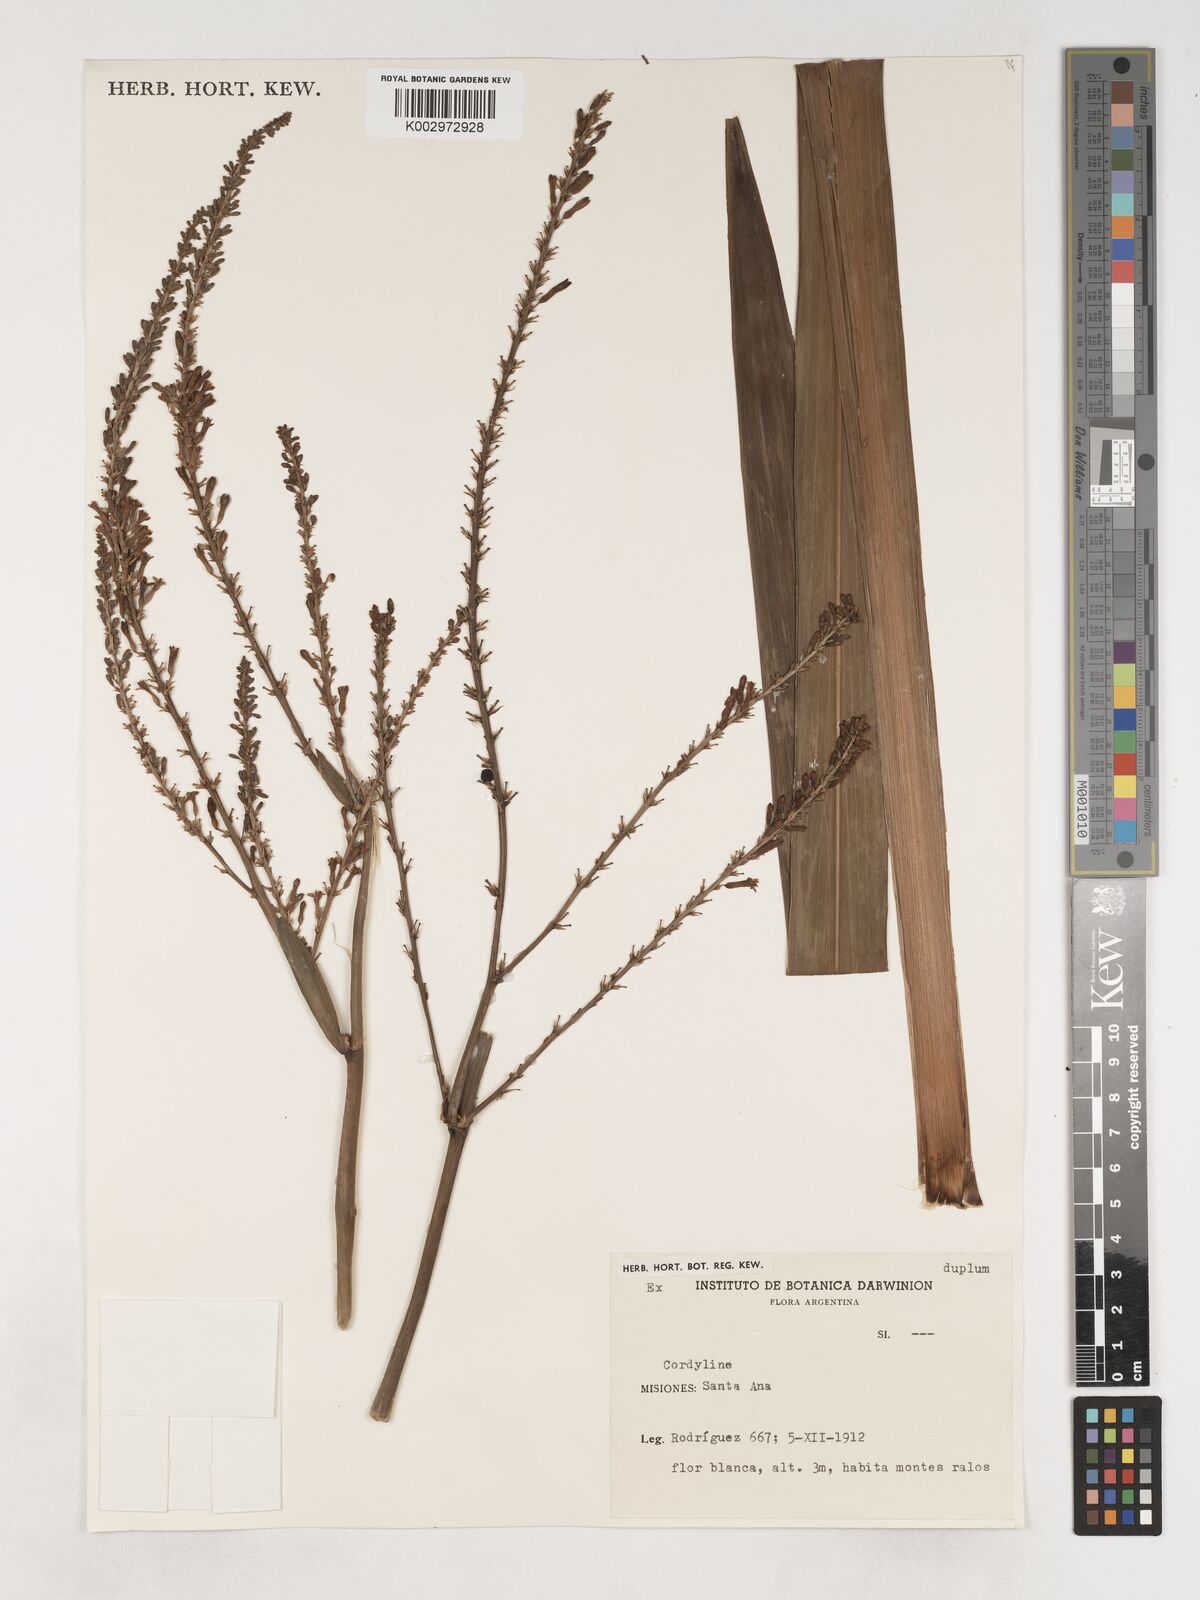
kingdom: Plantae
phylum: Tracheophyta
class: Liliopsida
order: Asparagales
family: Asparagaceae
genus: Cordyline
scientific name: Cordyline congesta
